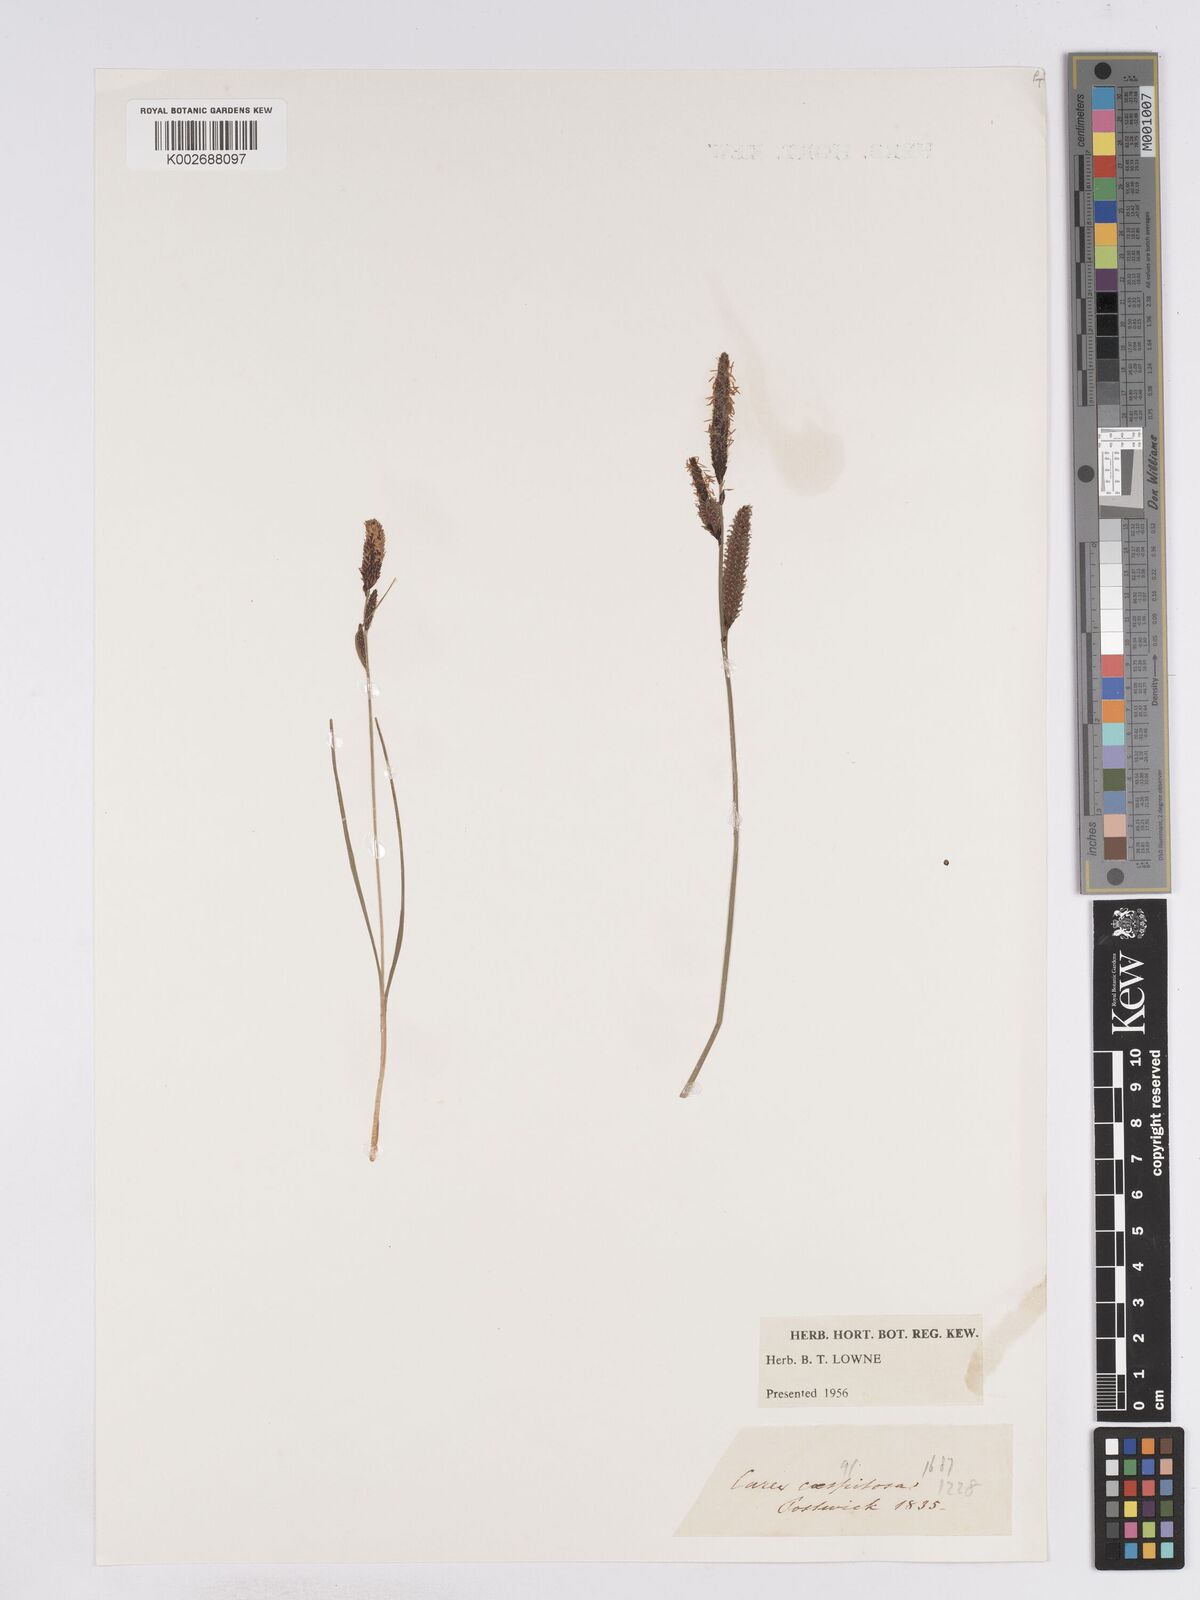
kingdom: Plantae
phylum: Tracheophyta
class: Liliopsida
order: Poales
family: Cyperaceae
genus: Carex
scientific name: Carex
